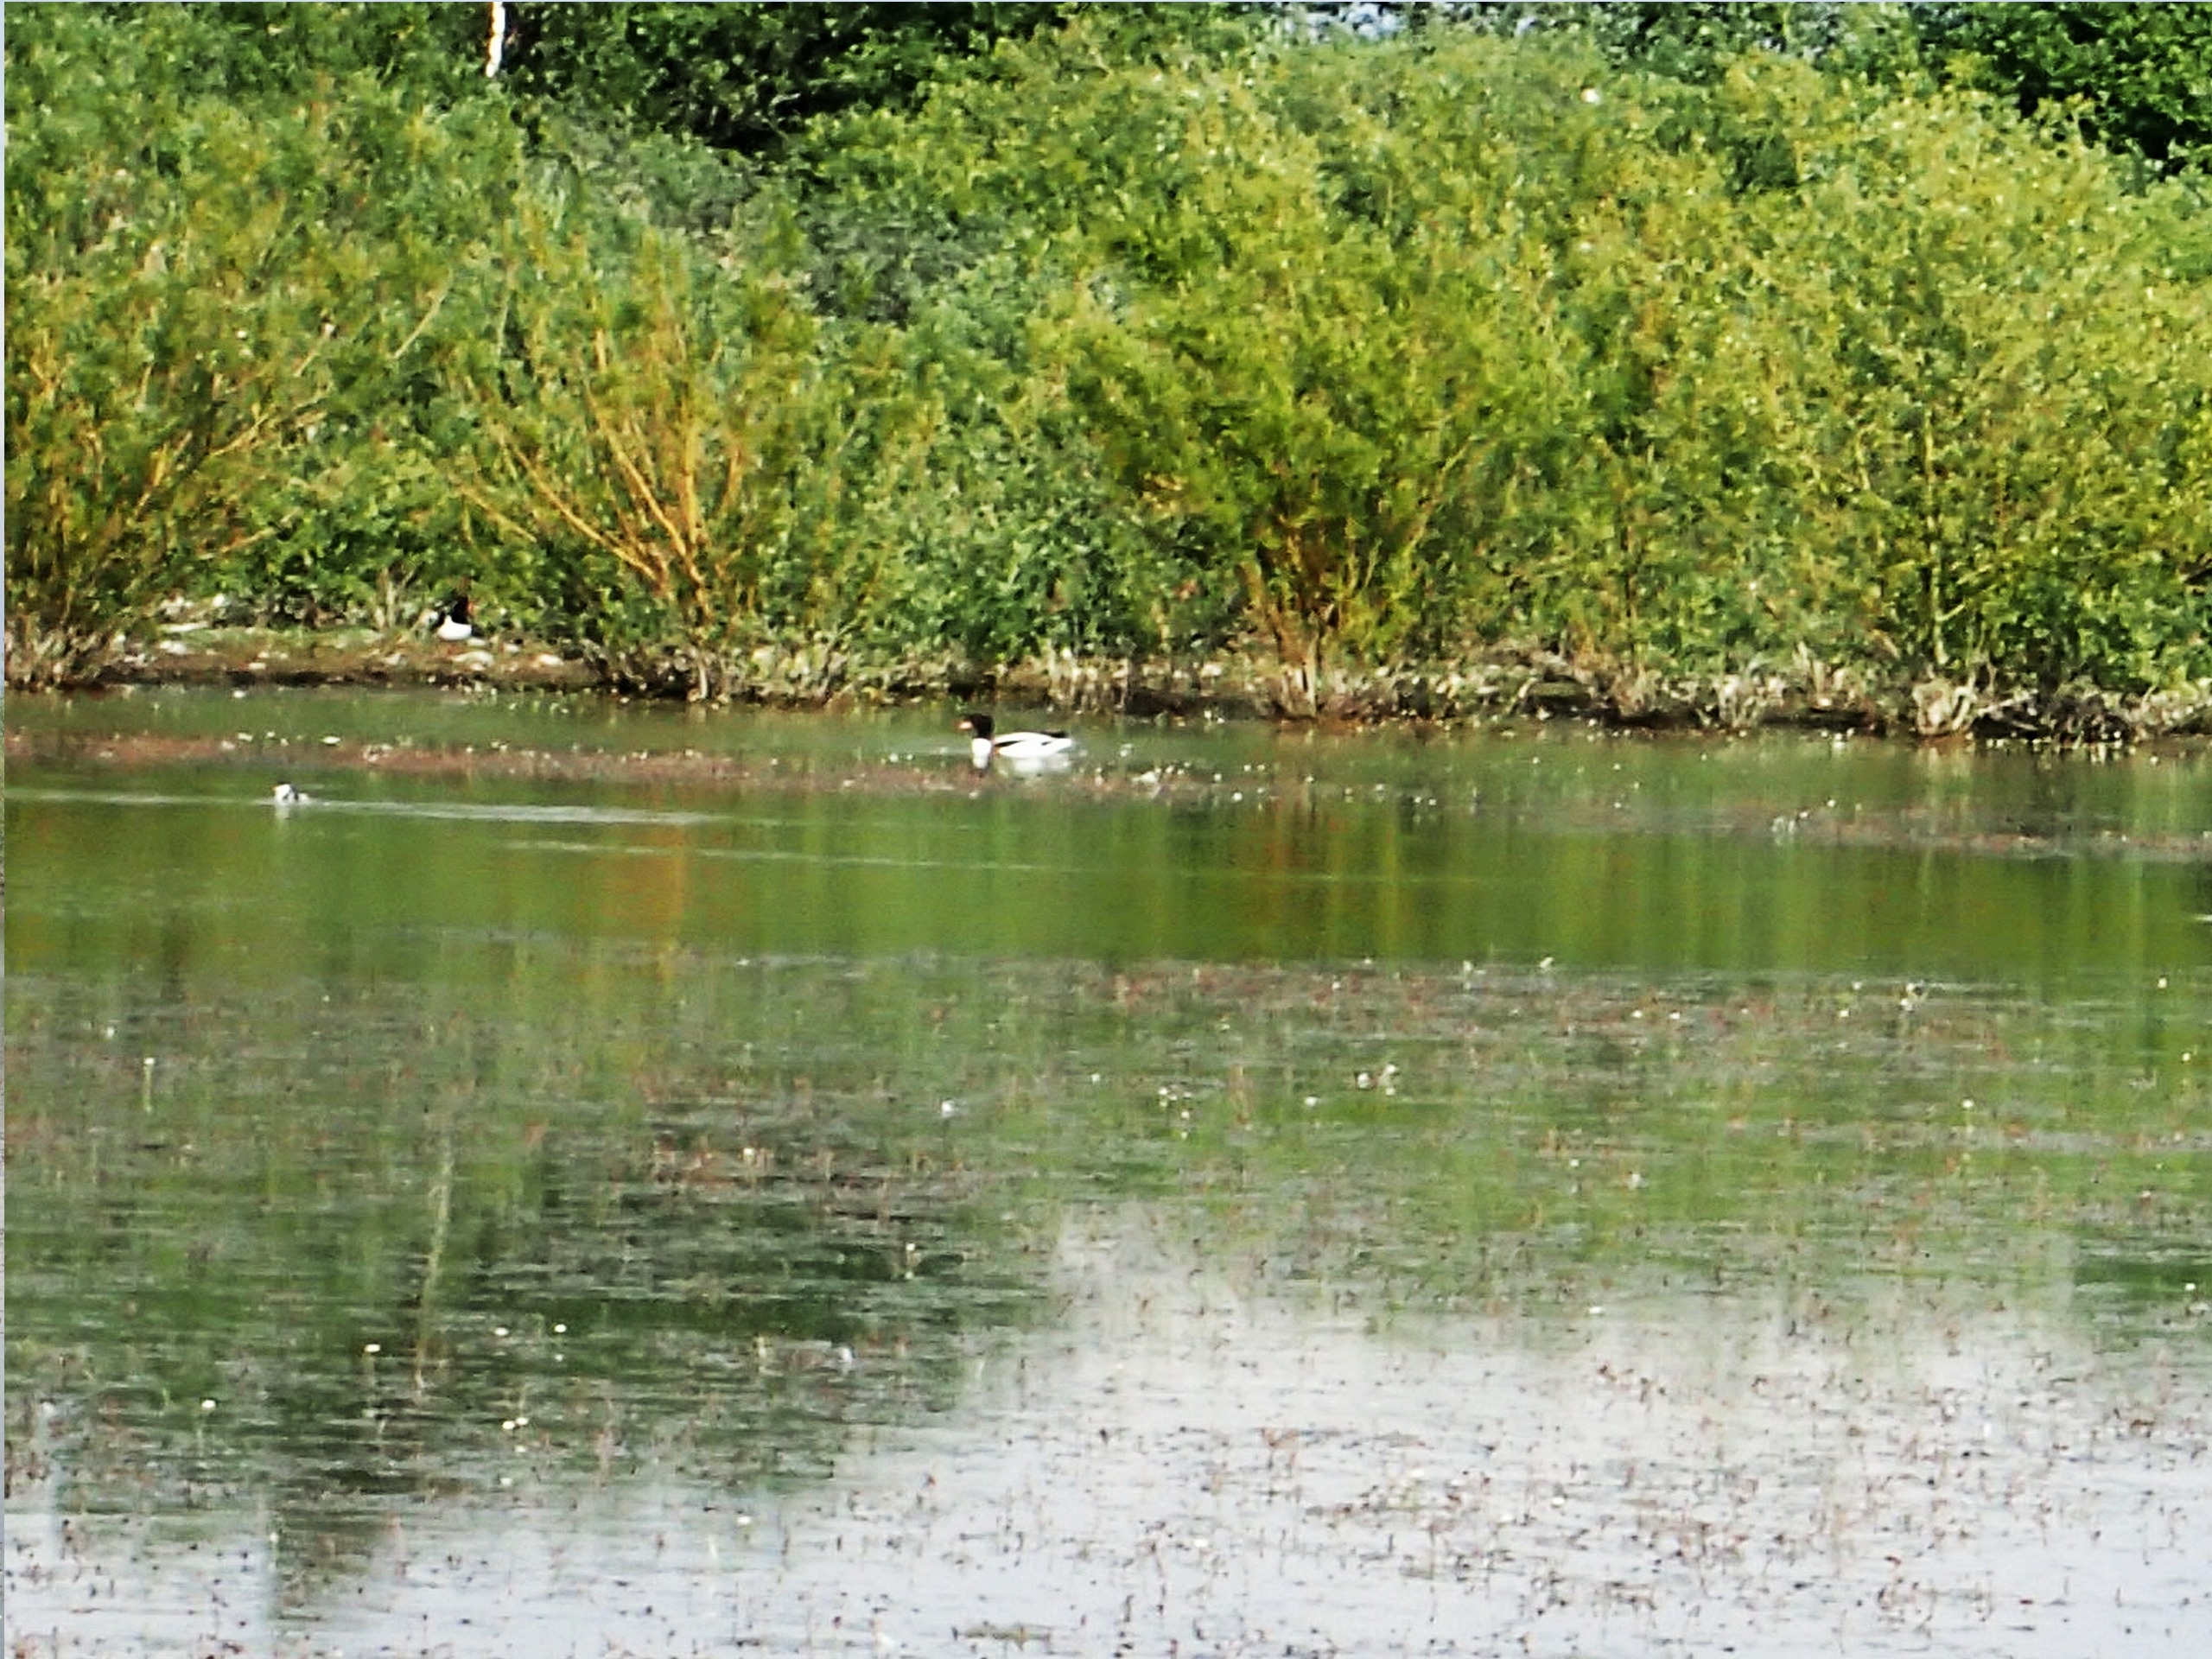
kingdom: Animalia
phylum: Chordata
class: Aves
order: Anseriformes
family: Anatidae
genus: Tadorna
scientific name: Tadorna tadorna
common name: Gravand
